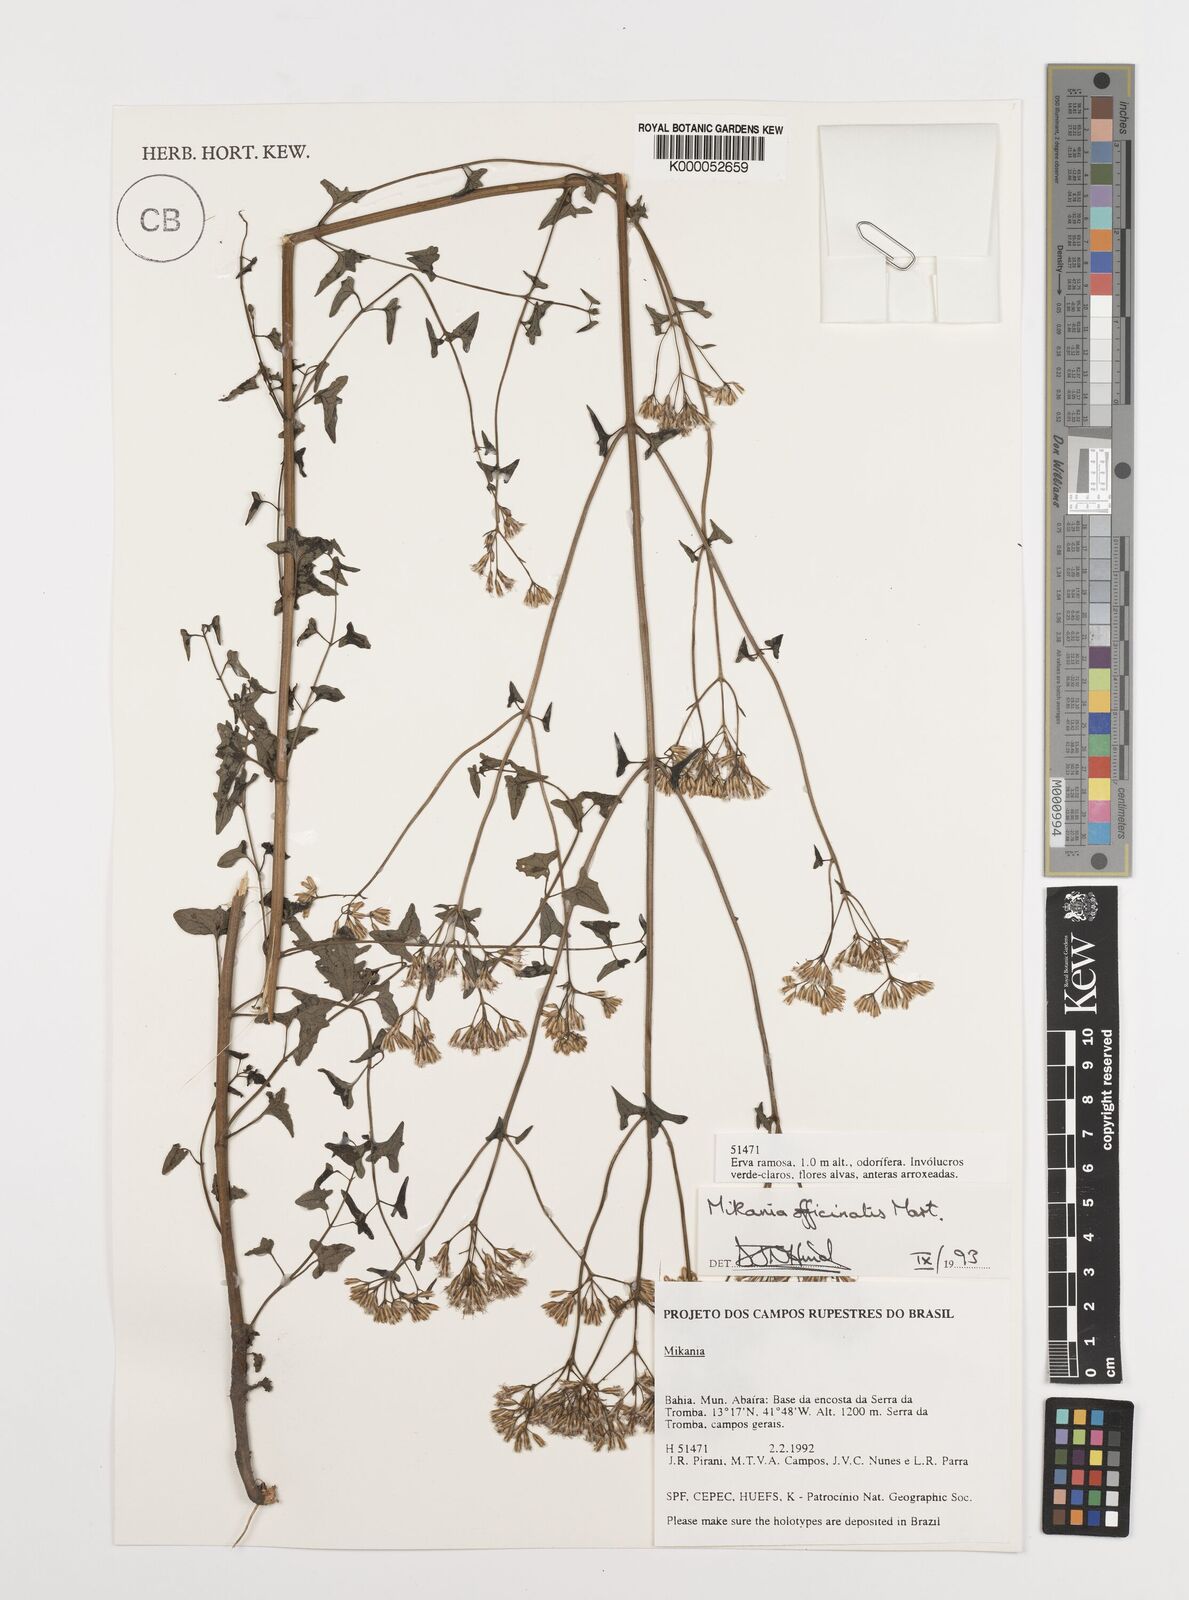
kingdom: Plantae
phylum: Tracheophyta
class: Magnoliopsida
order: Asterales
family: Asteraceae
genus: Mikania
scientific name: Mikania officinalis
